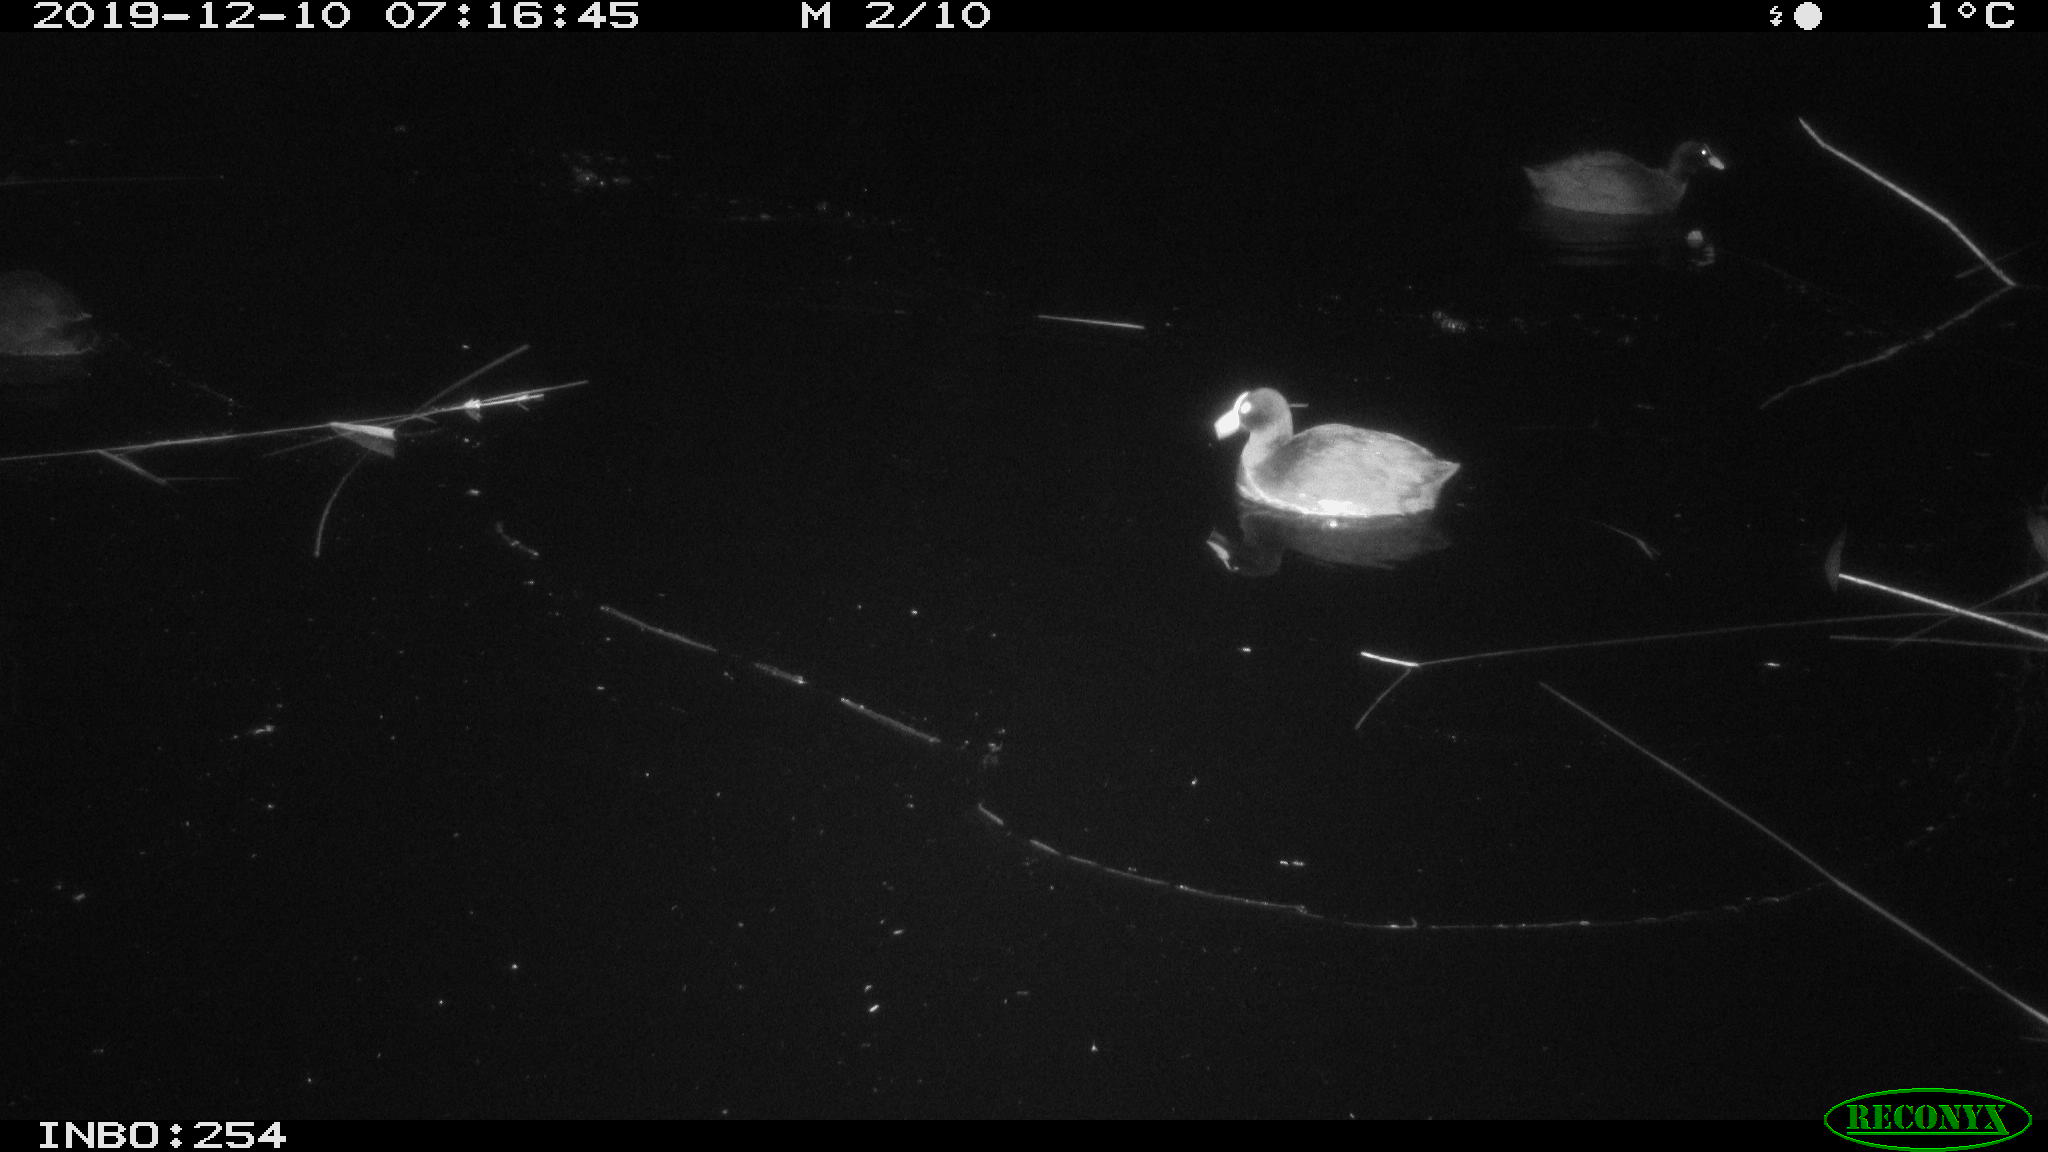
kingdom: Animalia
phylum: Chordata
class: Aves
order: Gruiformes
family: Rallidae
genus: Fulica
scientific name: Fulica atra
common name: Eurasian coot
